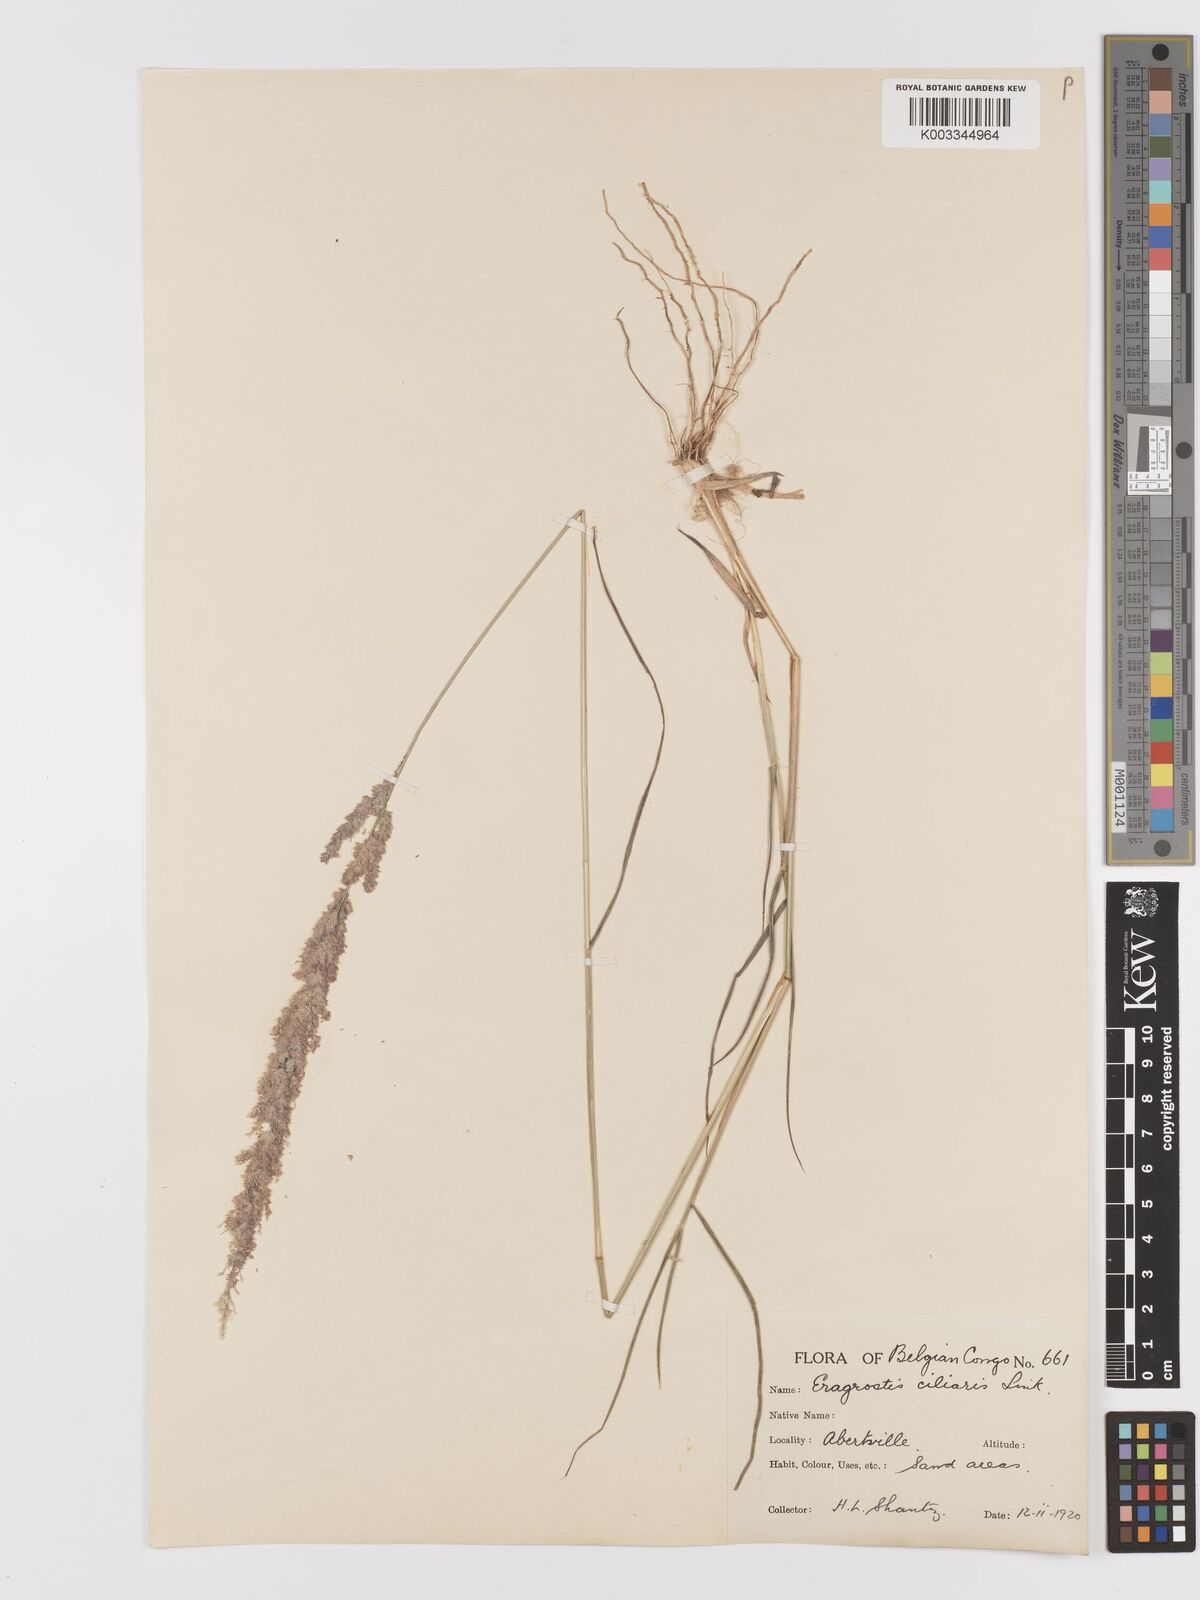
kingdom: Plantae
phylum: Tracheophyta
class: Liliopsida
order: Poales
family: Poaceae
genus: Eragrostis
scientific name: Eragrostis ciliaris
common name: Gophertail lovegrass
